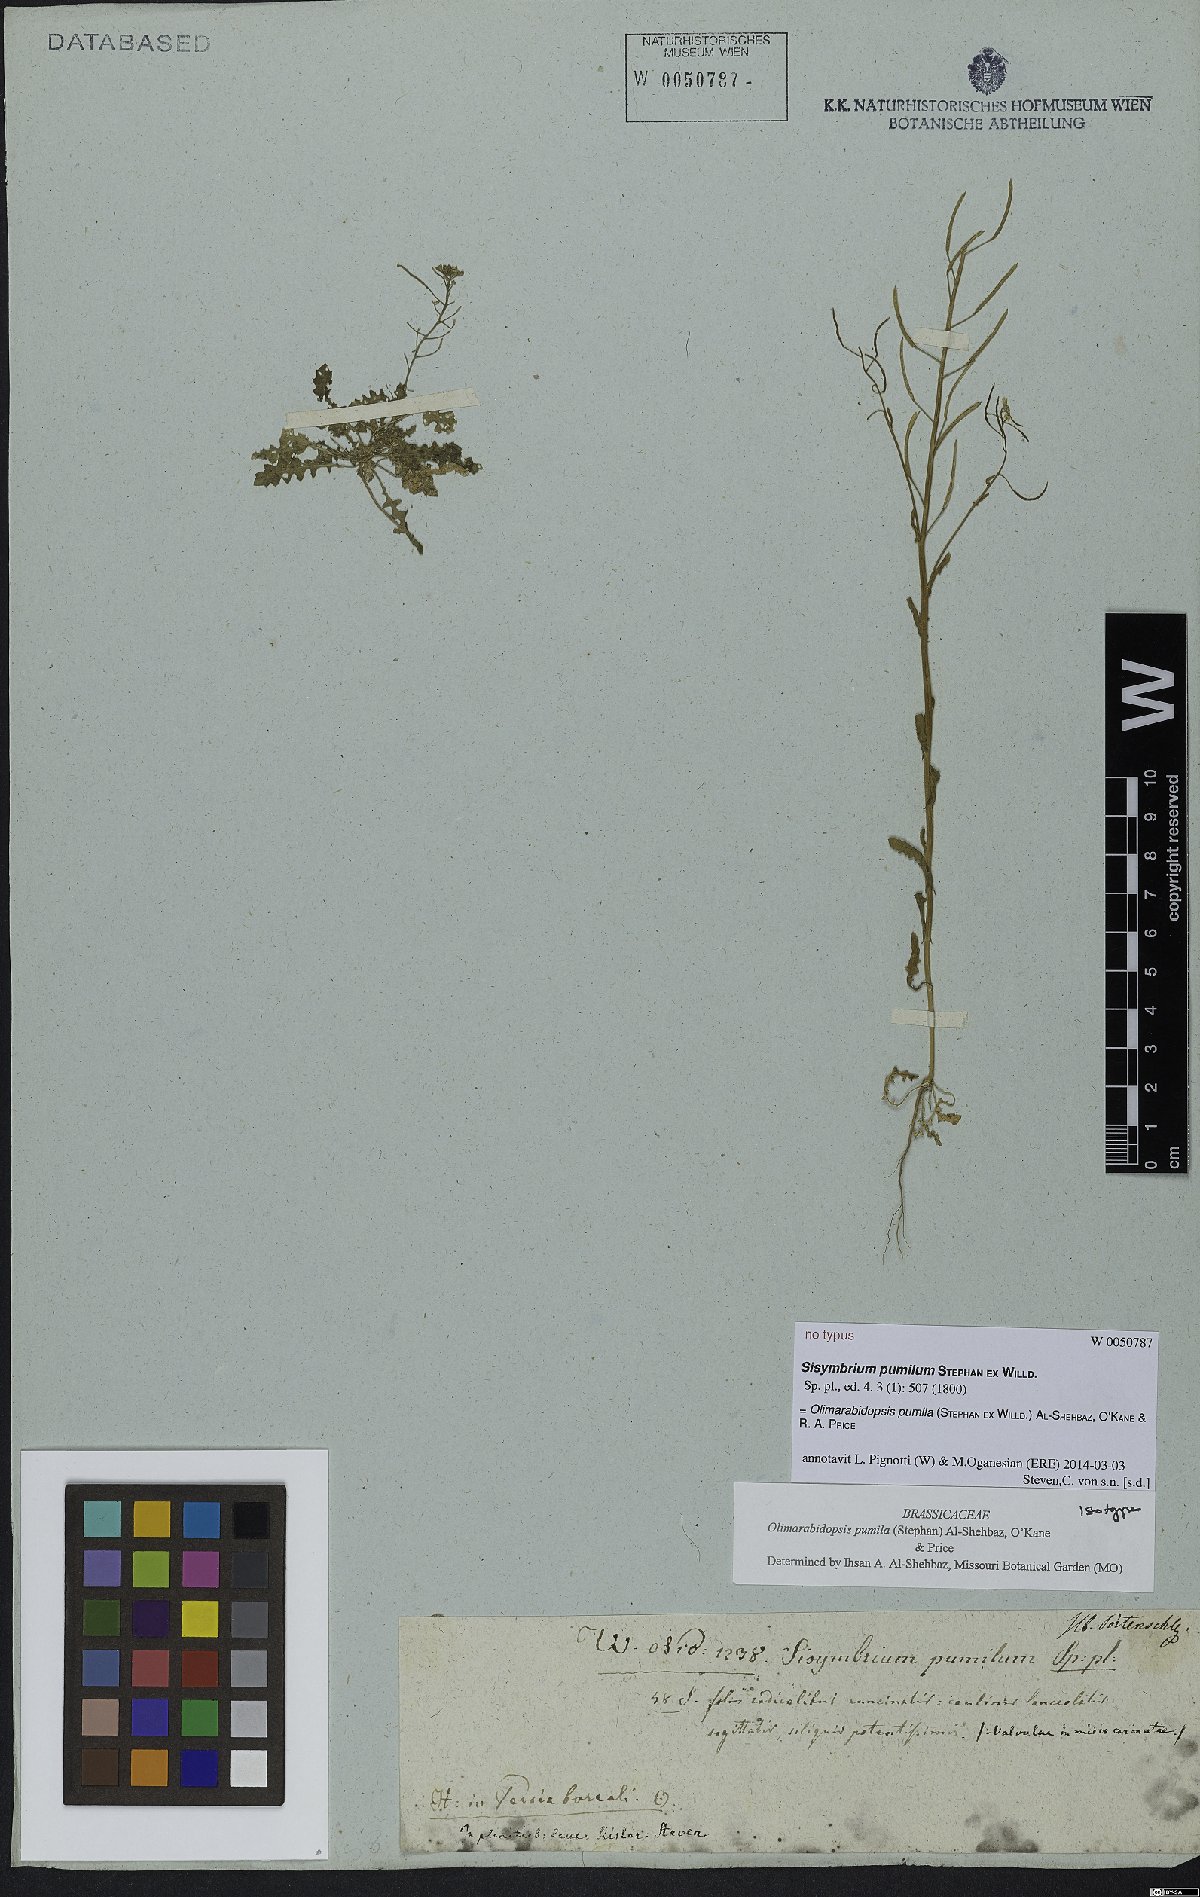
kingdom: Plantae
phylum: Tracheophyta
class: Magnoliopsida
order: Brassicales
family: Brassicaceae
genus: Sisymbrium
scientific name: Sisymbrium pumilum
